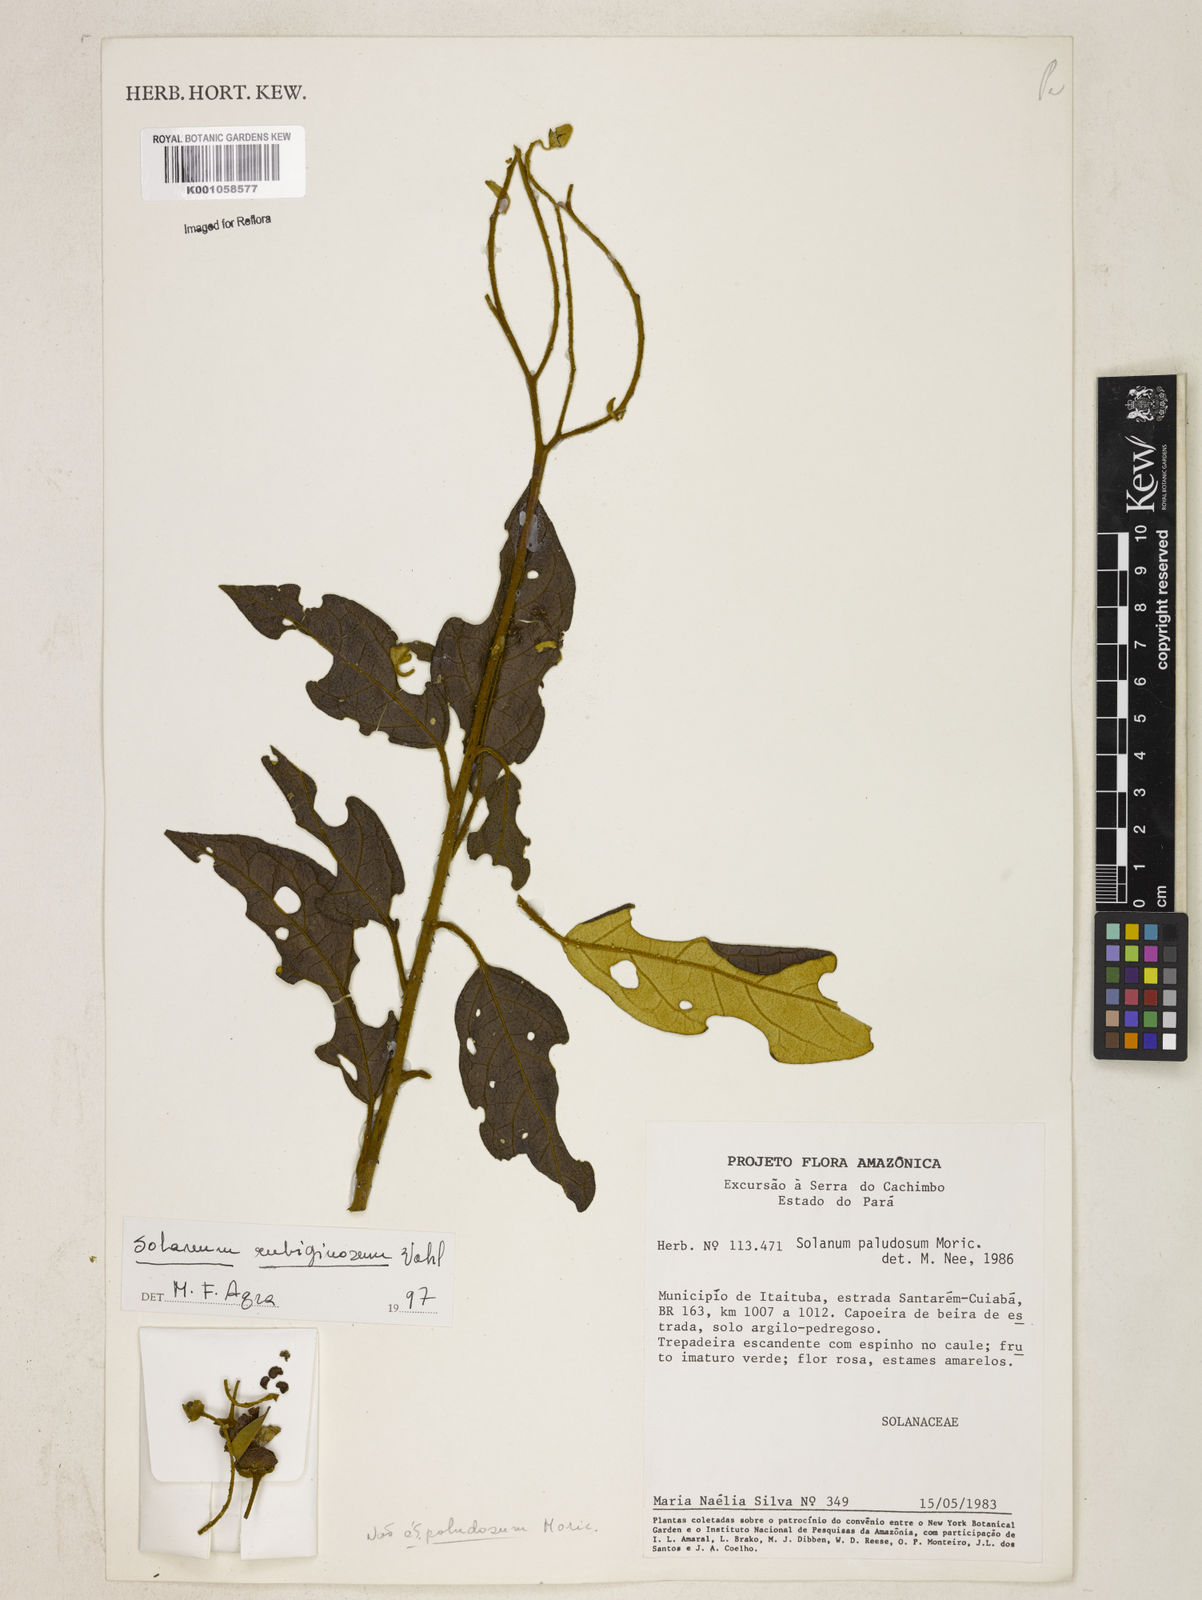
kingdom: Plantae
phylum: Tracheophyta
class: Magnoliopsida
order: Solanales
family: Solanaceae
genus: Solanum
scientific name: Solanum rubiginosum
